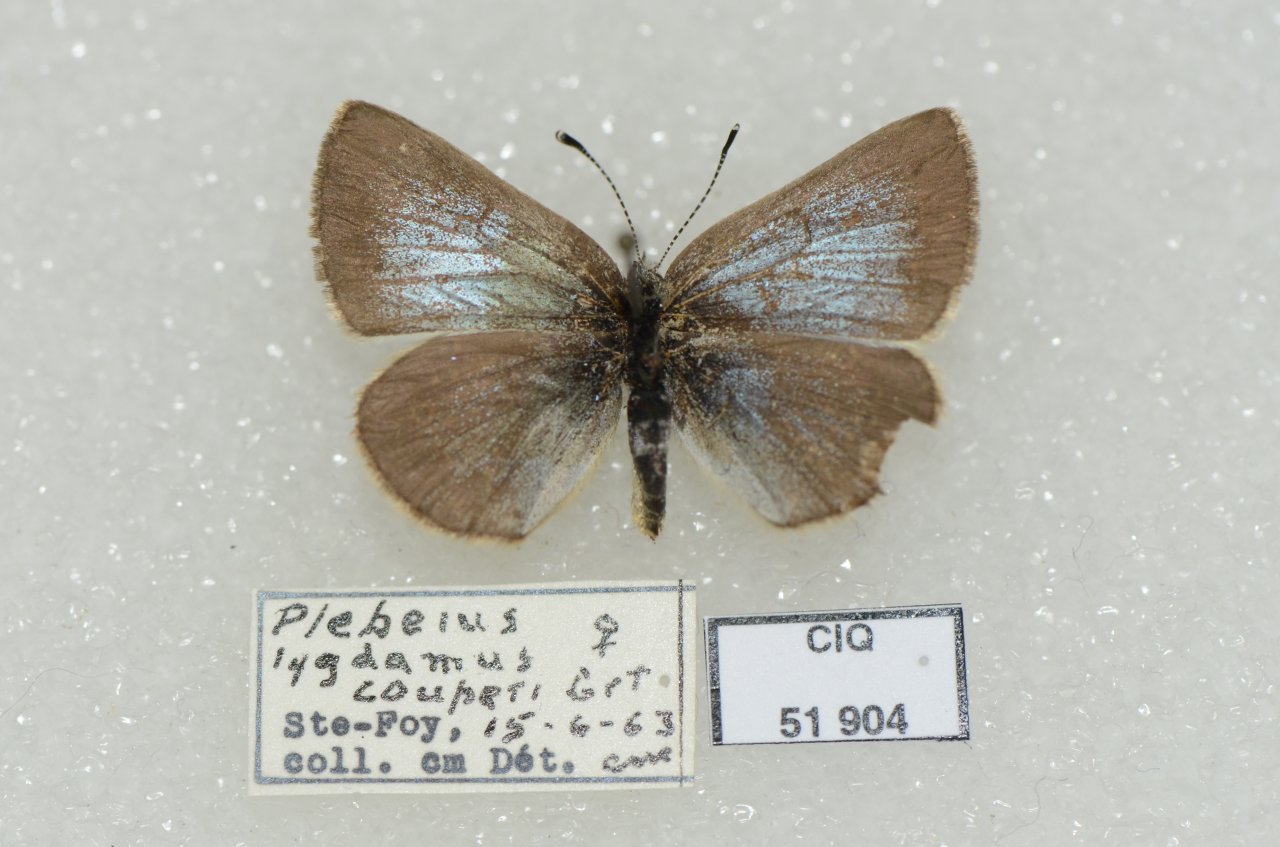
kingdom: Animalia
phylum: Arthropoda
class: Insecta
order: Lepidoptera
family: Lycaenidae
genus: Glaucopsyche
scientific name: Glaucopsyche lygdamus
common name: Silvery Blue
